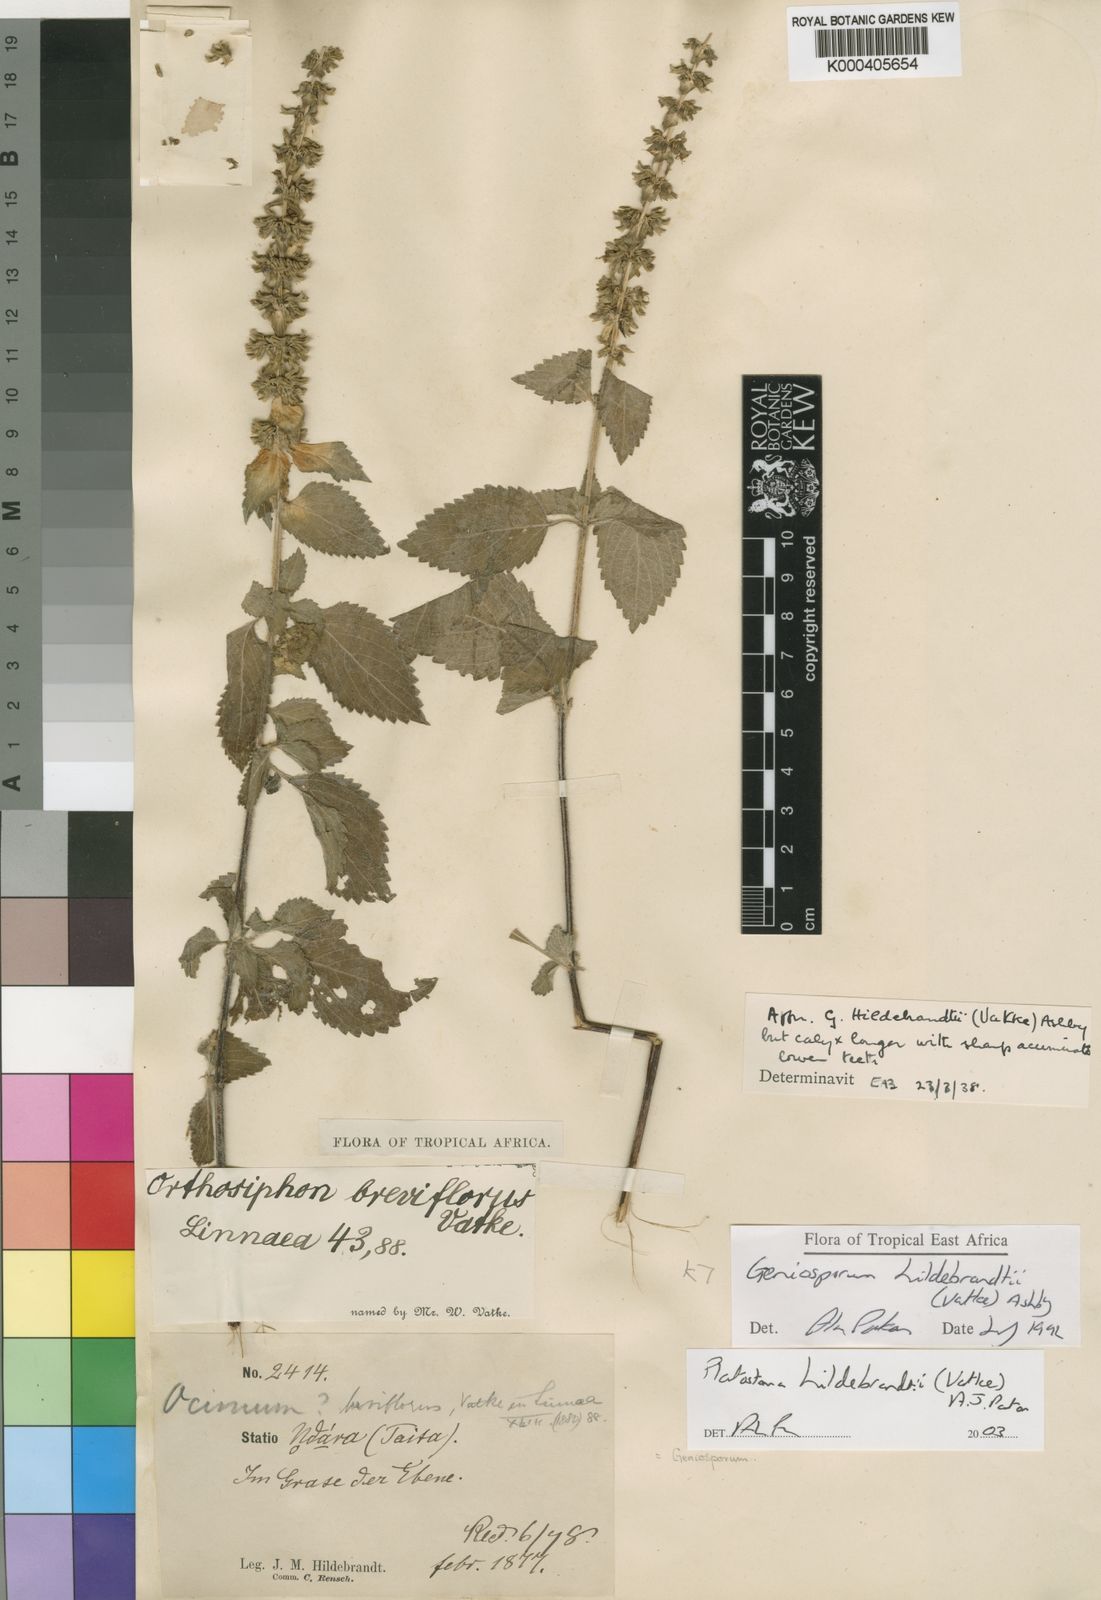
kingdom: Plantae
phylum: Tracheophyta
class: Magnoliopsida
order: Lamiales
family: Lamiaceae
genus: Platostoma
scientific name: Platostoma hildebrandtii
